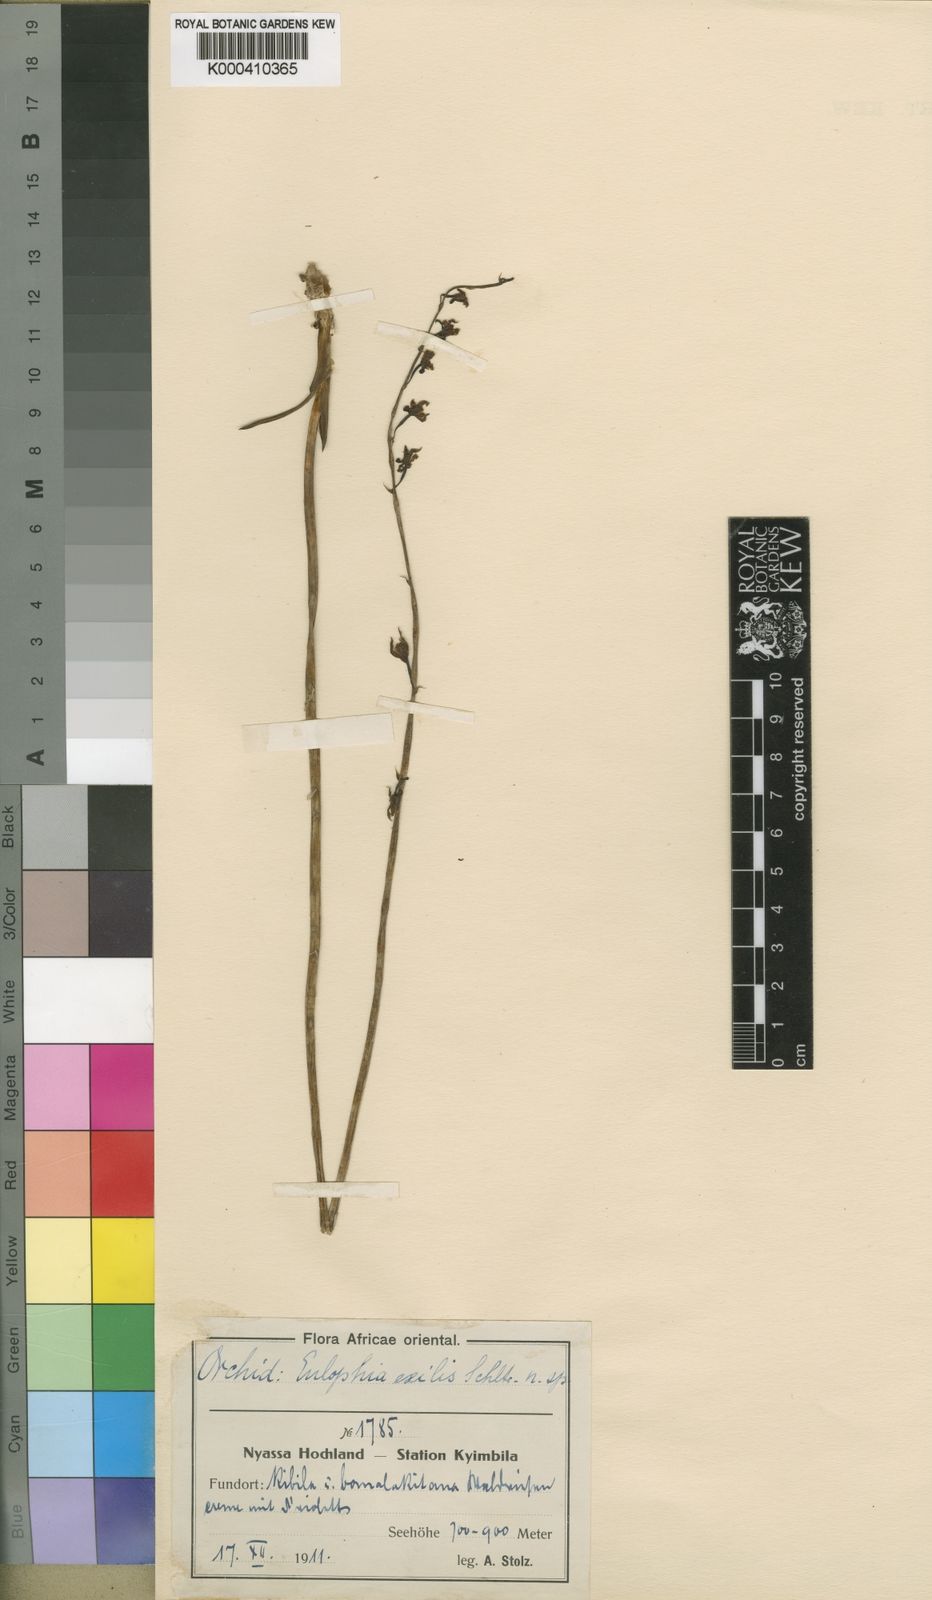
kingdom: Plantae
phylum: Tracheophyta
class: Liliopsida
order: Asparagales
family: Orchidaceae
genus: Eulophia
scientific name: Eulophia monile
